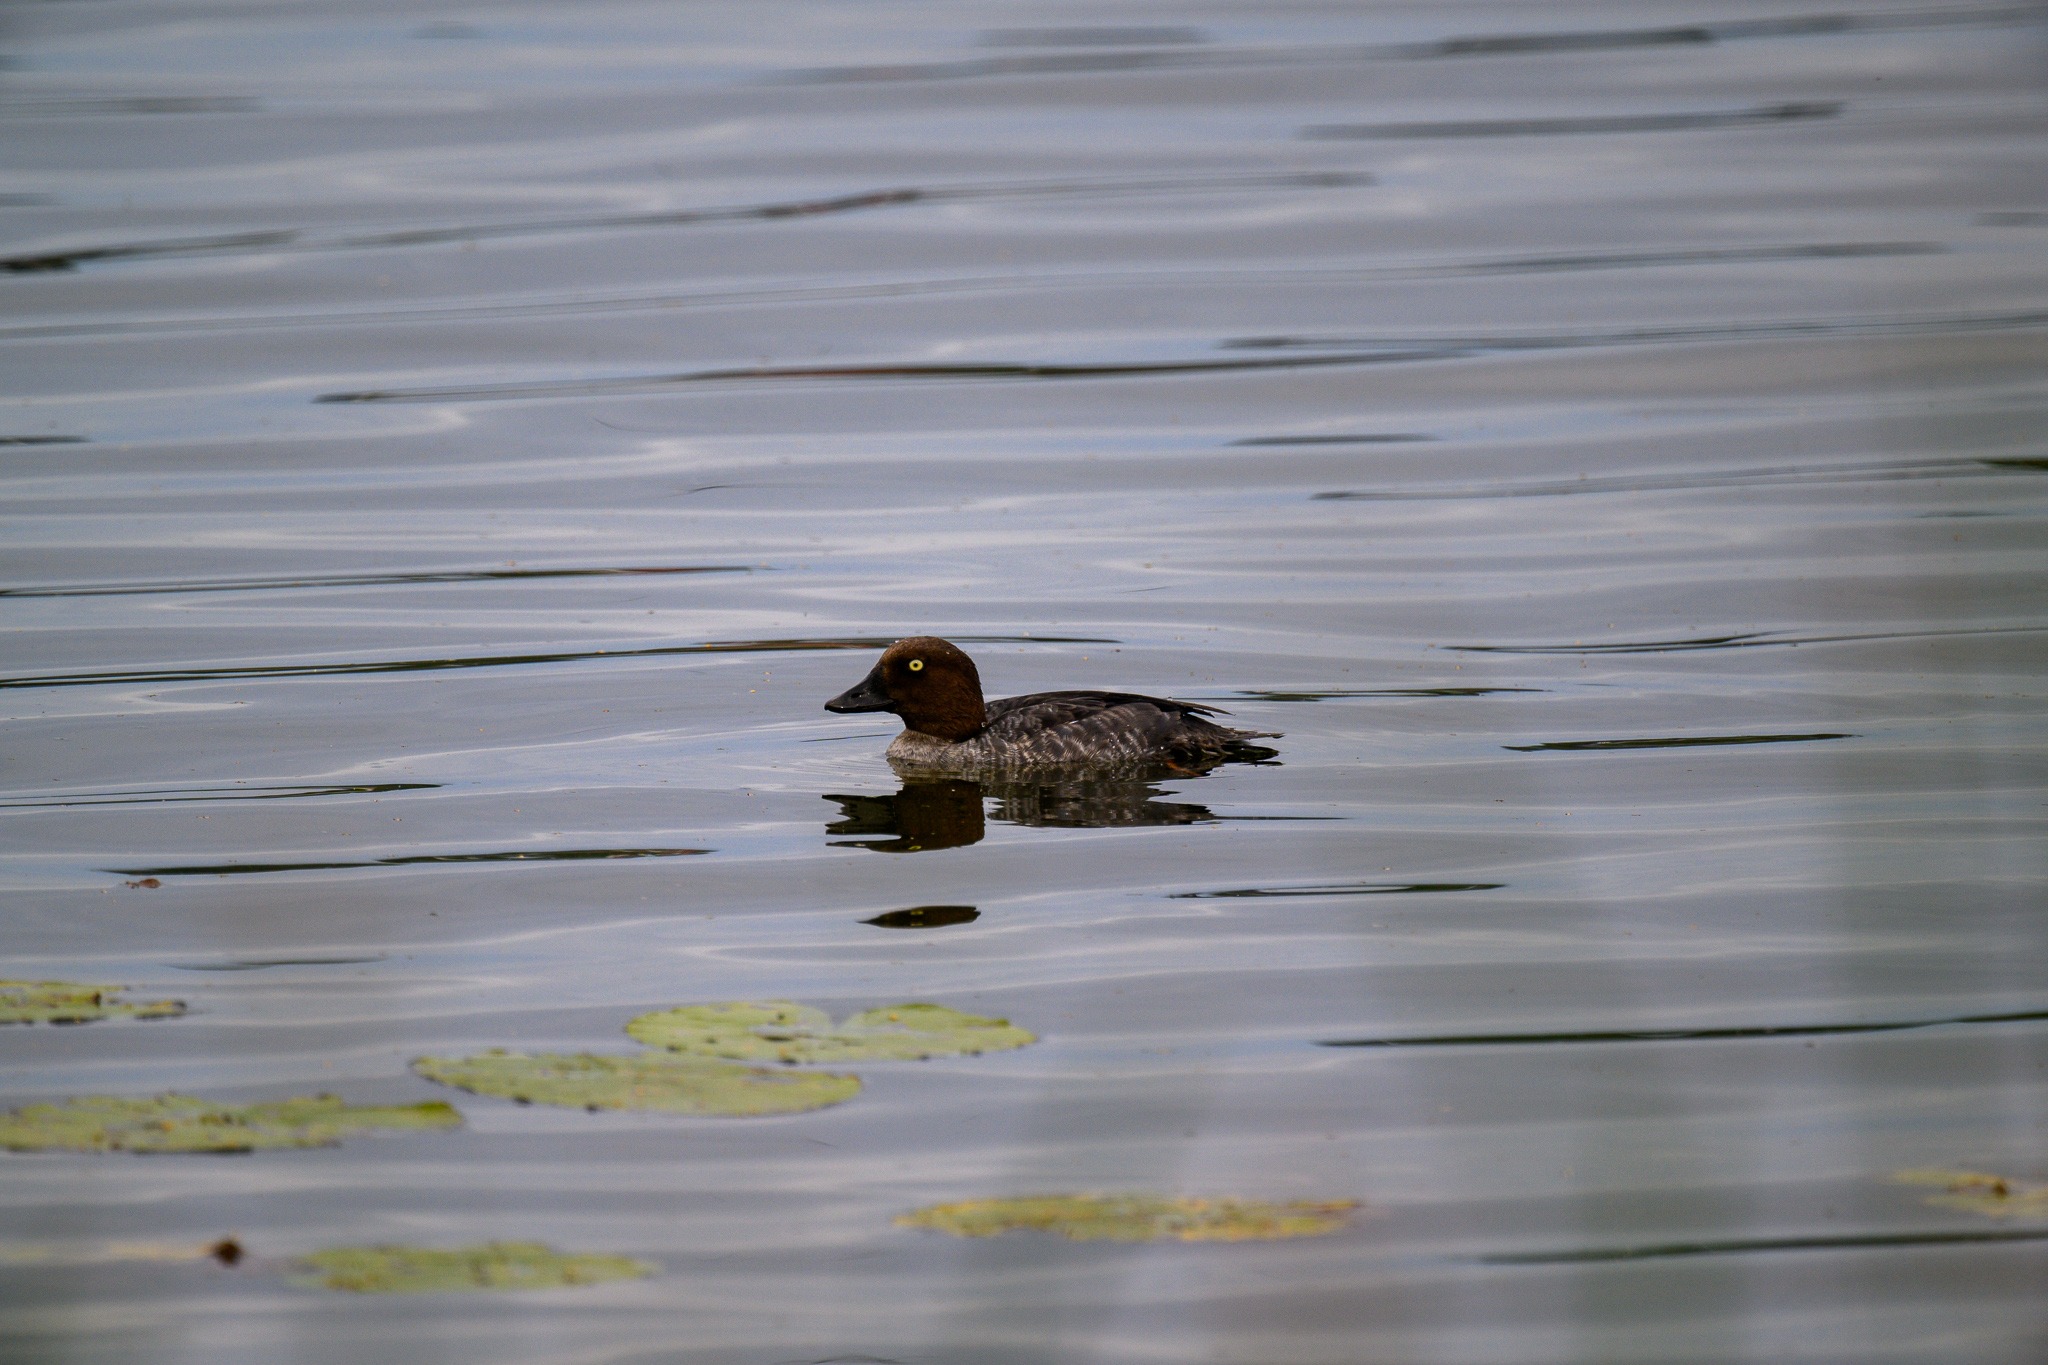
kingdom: Animalia
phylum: Chordata
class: Aves
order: Anseriformes
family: Anatidae
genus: Bucephala
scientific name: Bucephala clangula
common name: Hvinand
